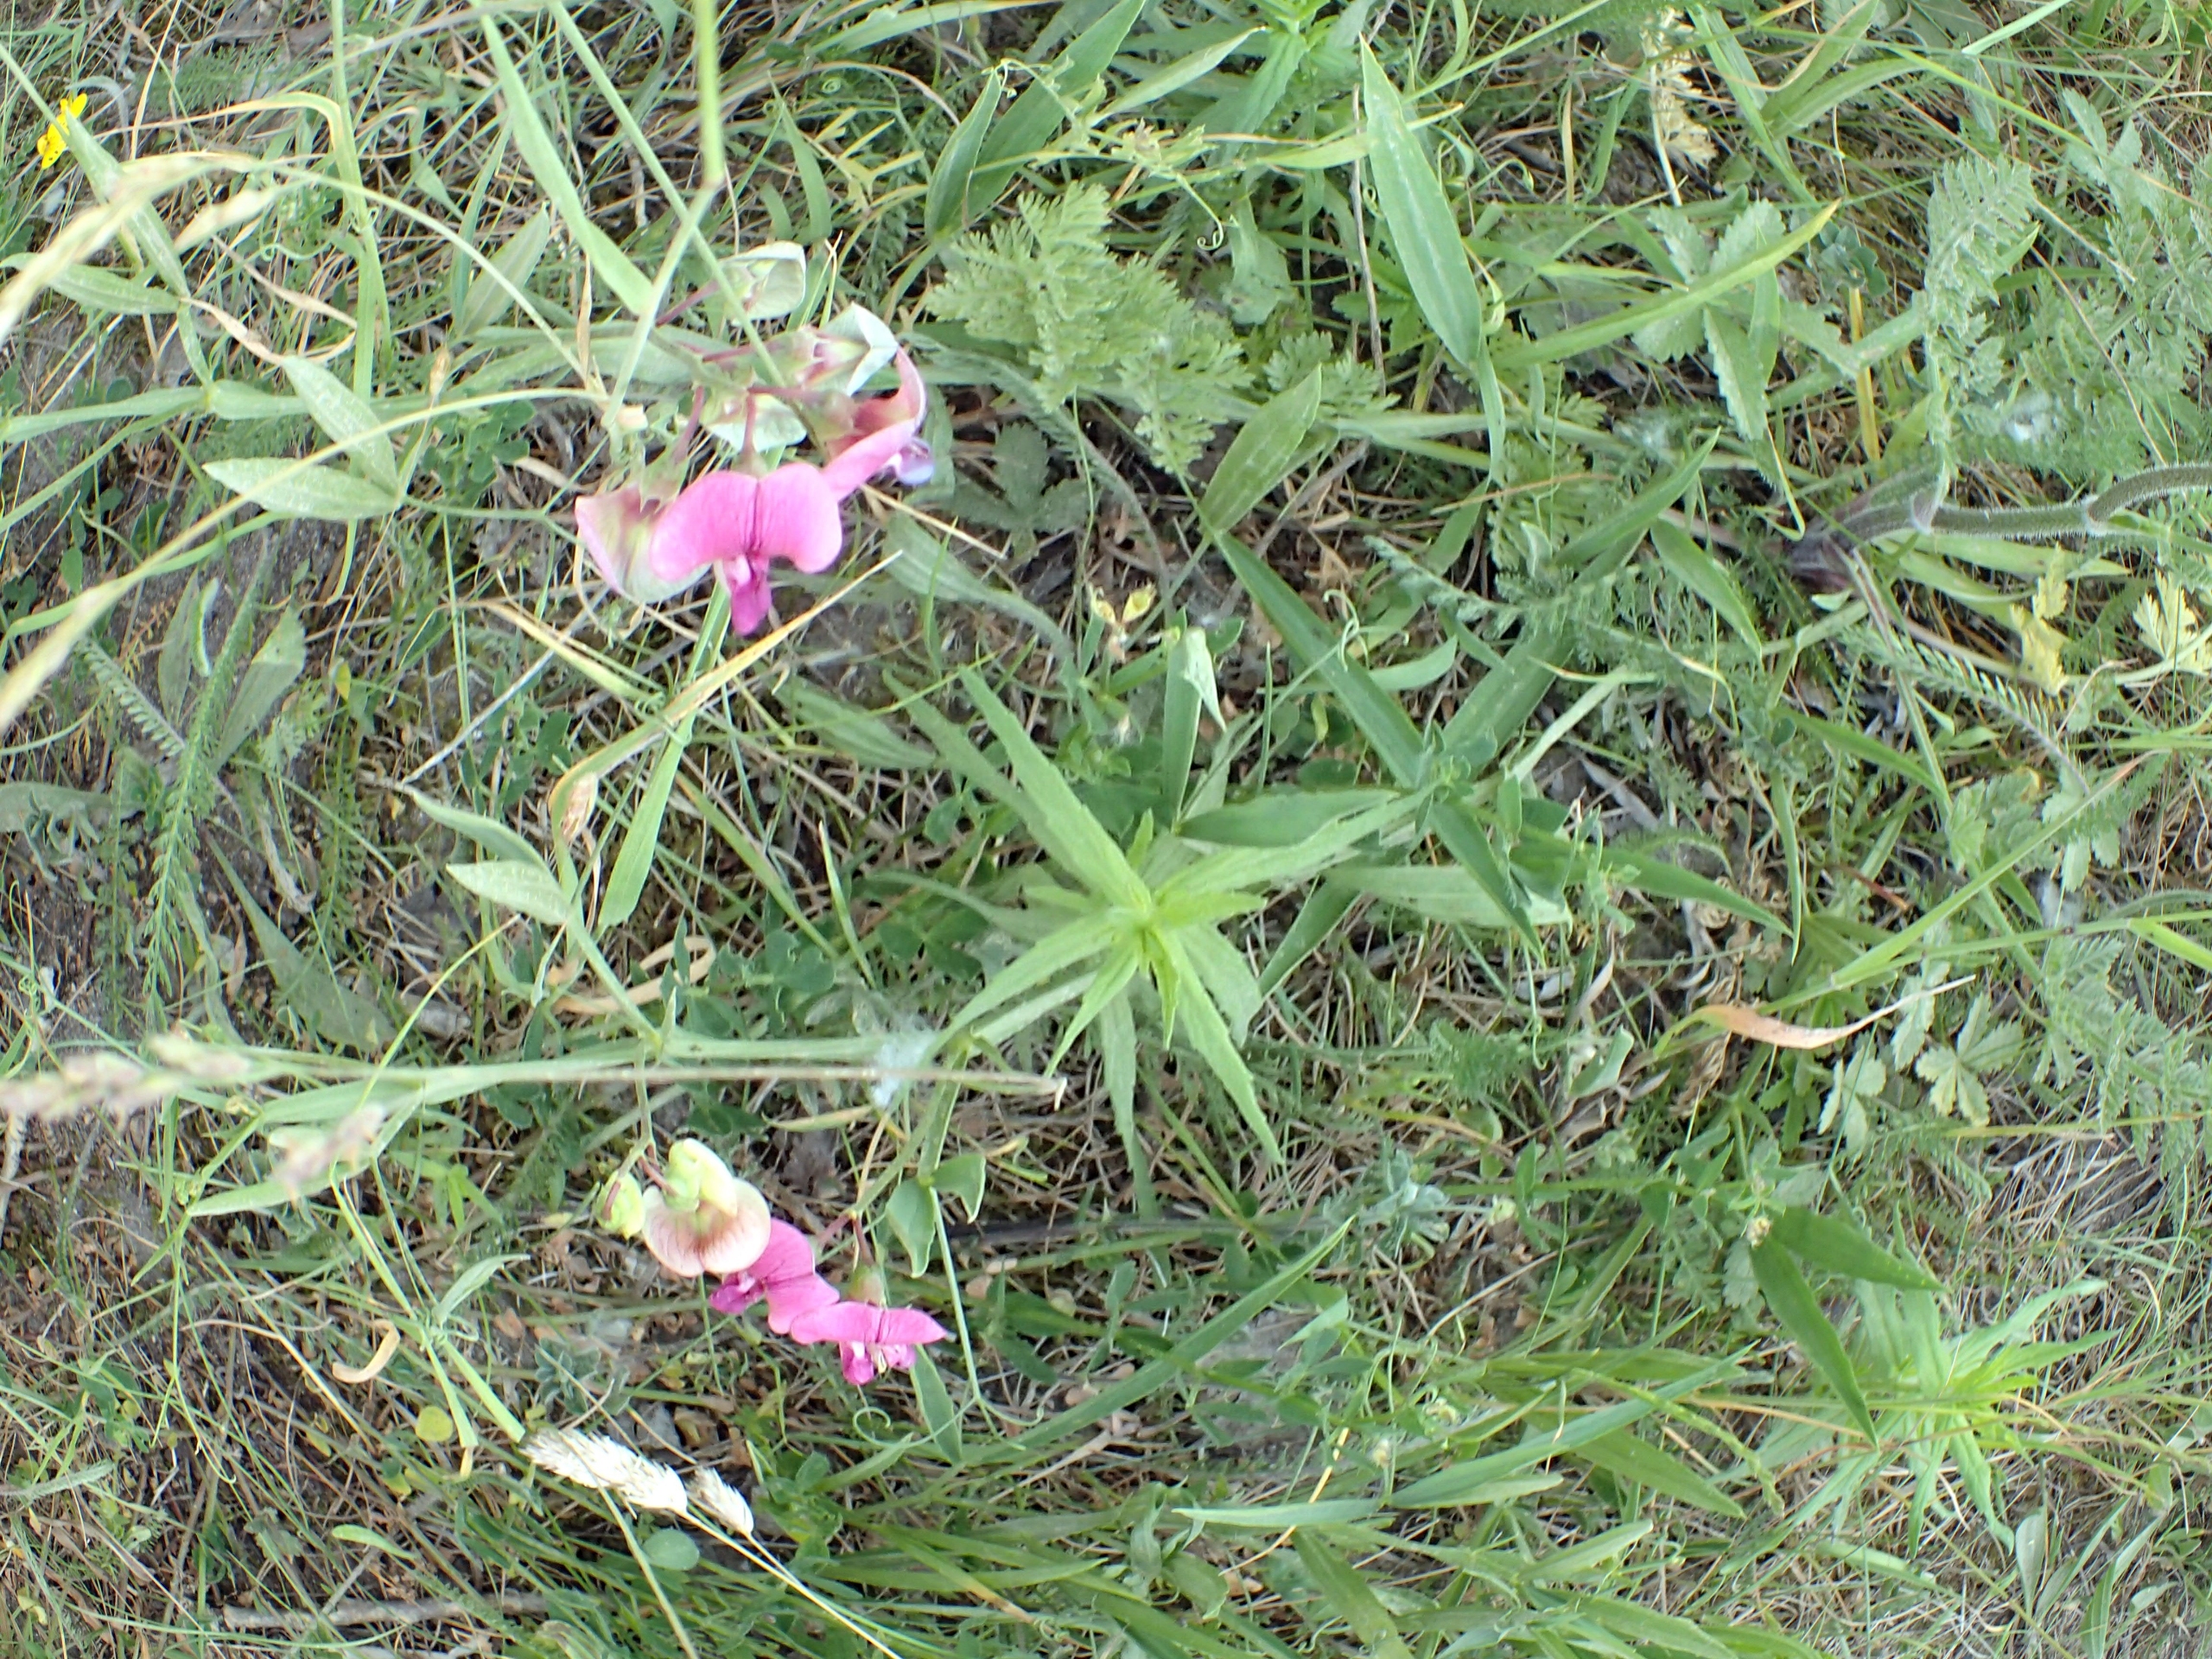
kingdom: Plantae
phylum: Tracheophyta
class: Magnoliopsida
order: Fabales
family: Fabaceae
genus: Lathyrus
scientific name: Lathyrus sylvestris
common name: Skov-fladbælg
